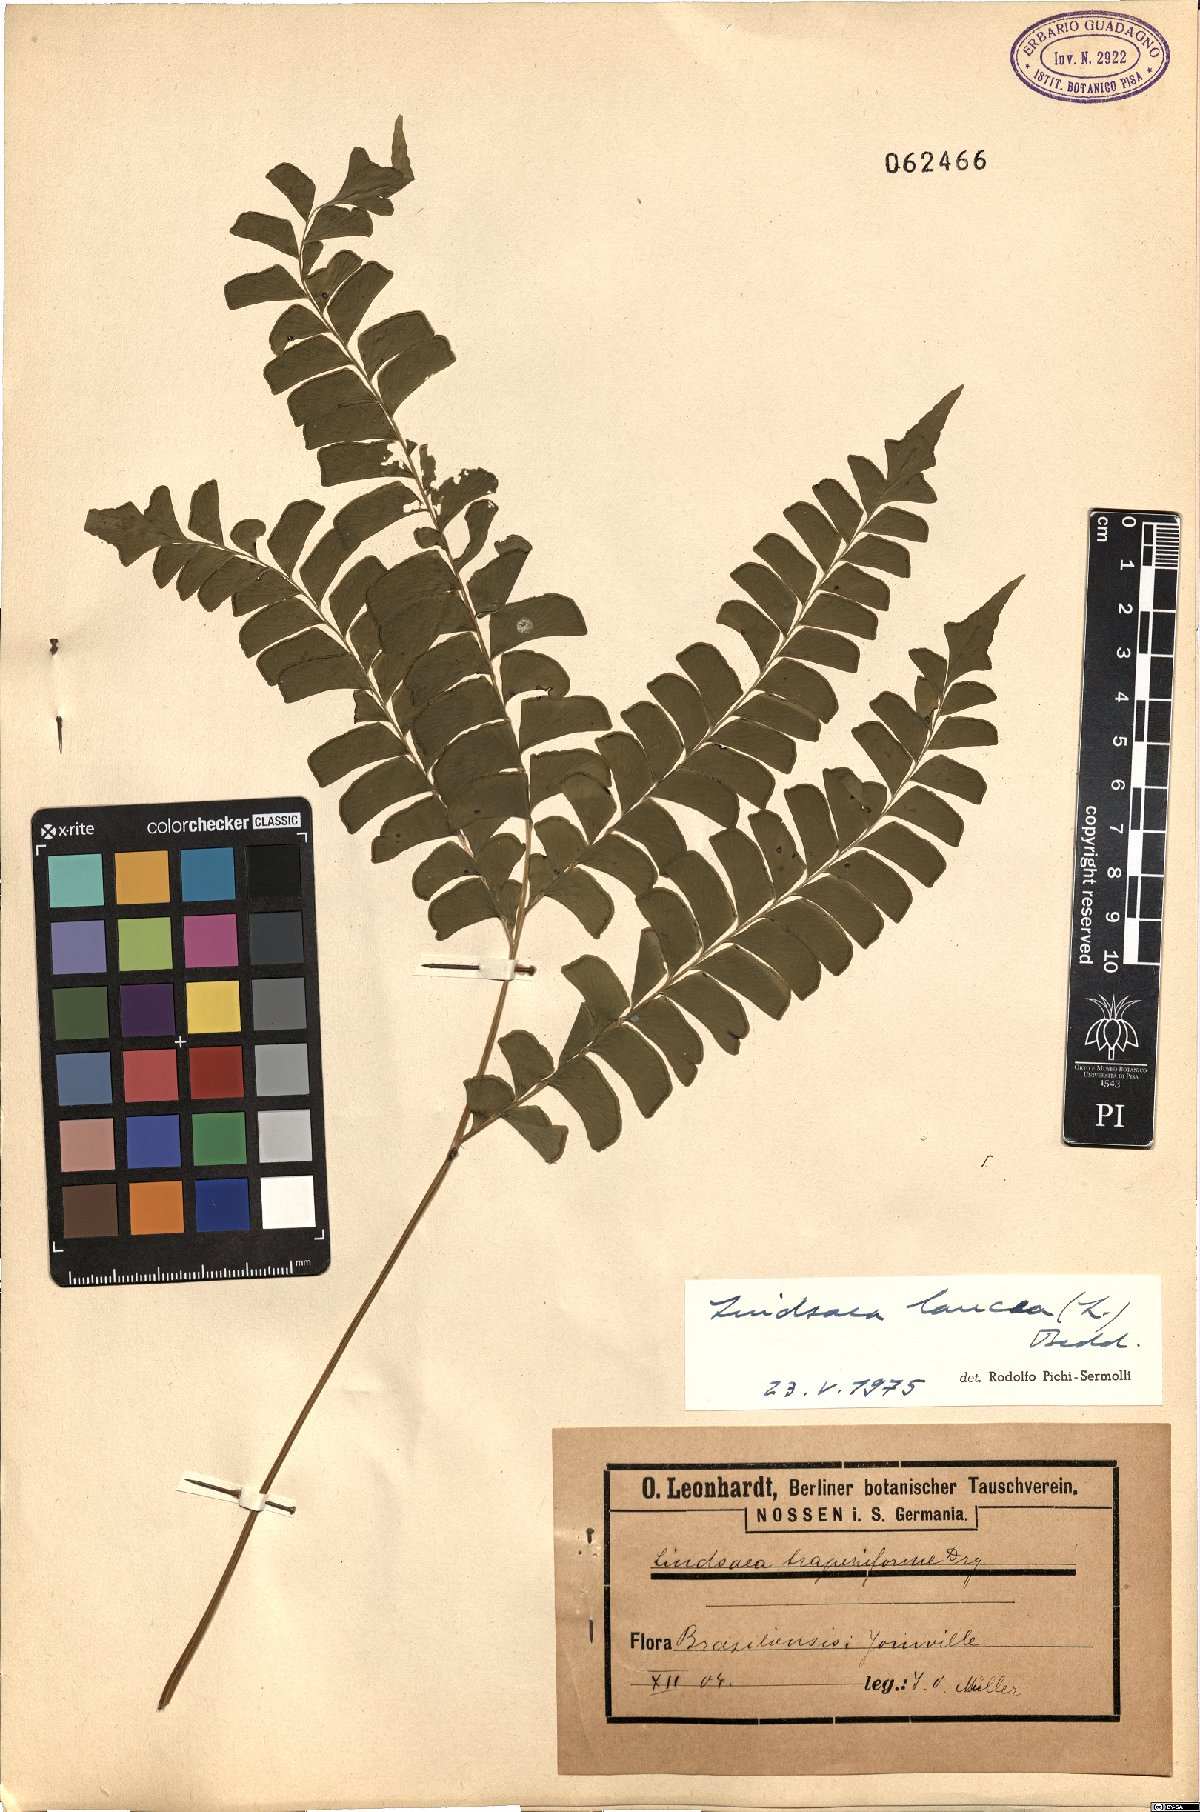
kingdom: Plantae
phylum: Tracheophyta
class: Polypodiopsida
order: Polypodiales
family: Lindsaeaceae
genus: Lindsaea
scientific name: Lindsaea lancea
